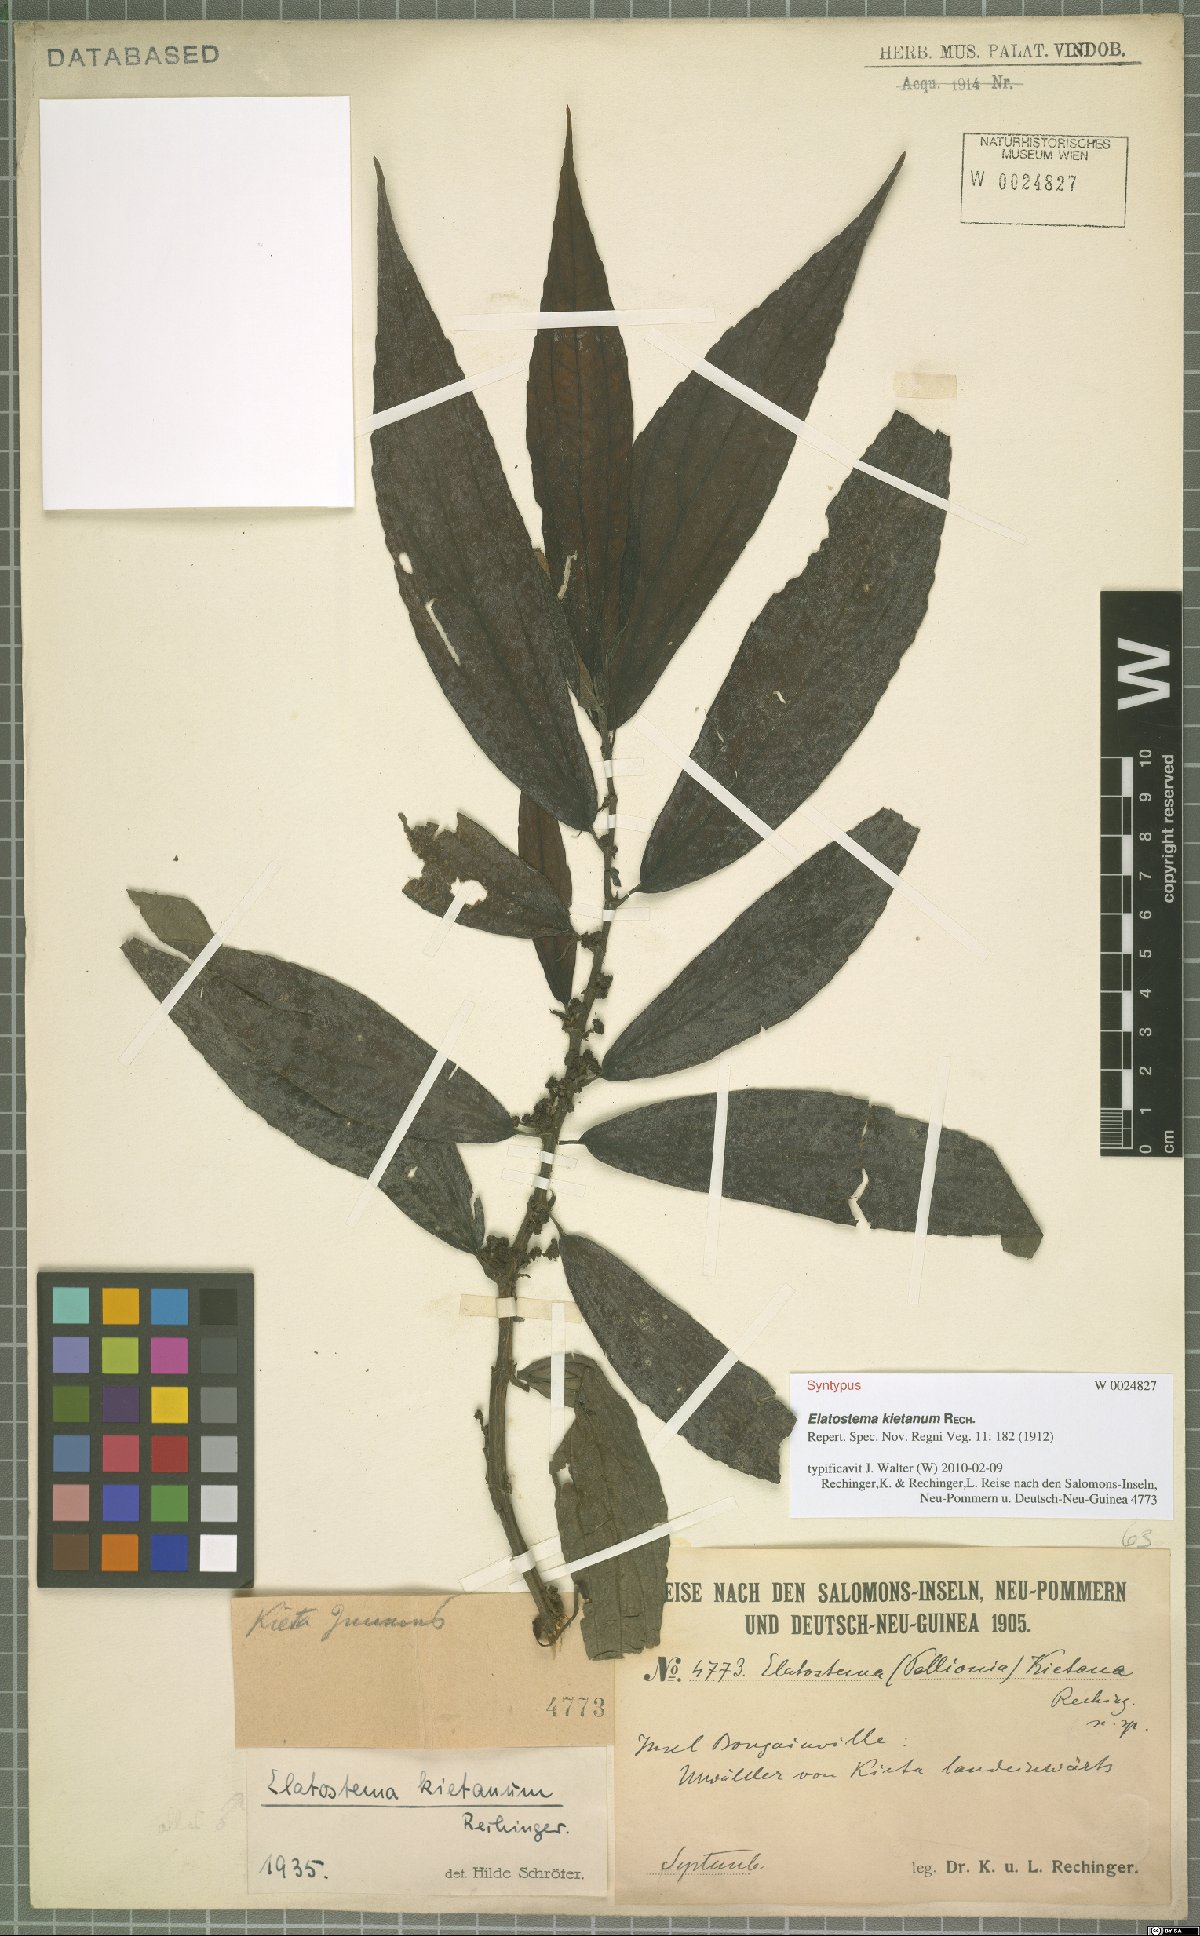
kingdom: Plantae
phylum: Tracheophyta
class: Magnoliopsida
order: Rosales
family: Urticaceae
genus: Elatostema
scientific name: Elatostema kietanum
